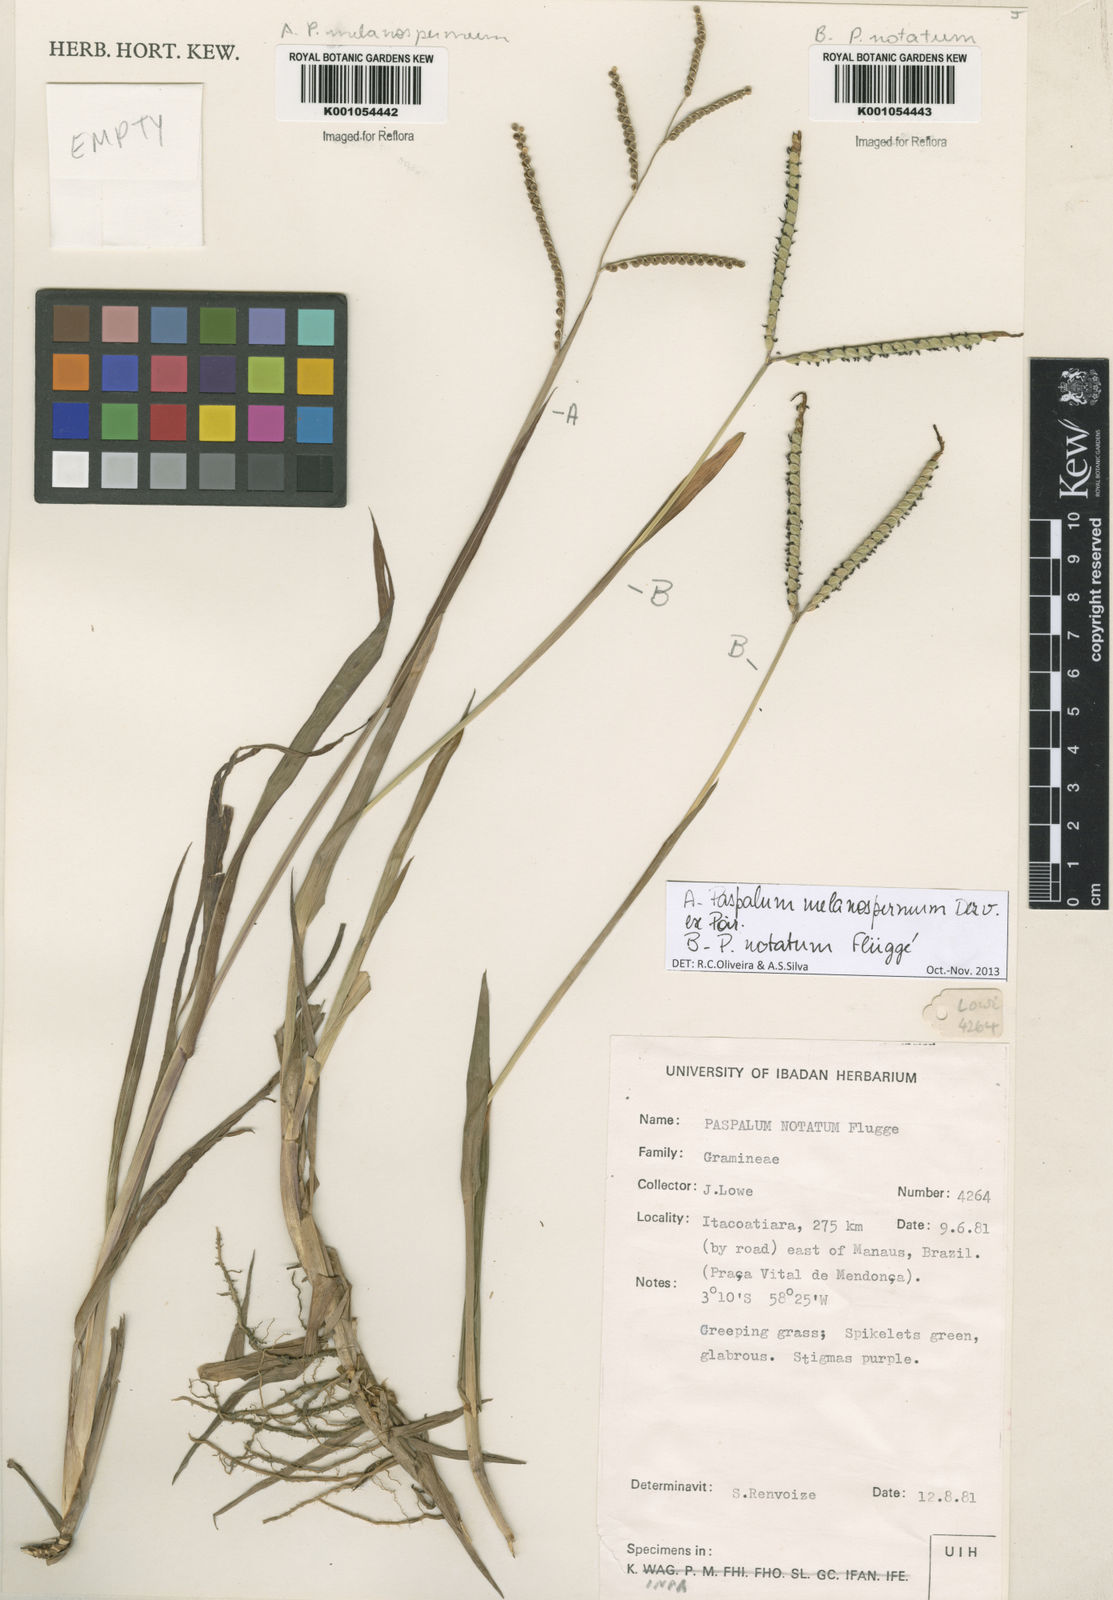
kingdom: Plantae
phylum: Tracheophyta
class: Liliopsida
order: Poales
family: Poaceae
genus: Paspalum
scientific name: Paspalum melanospermum
